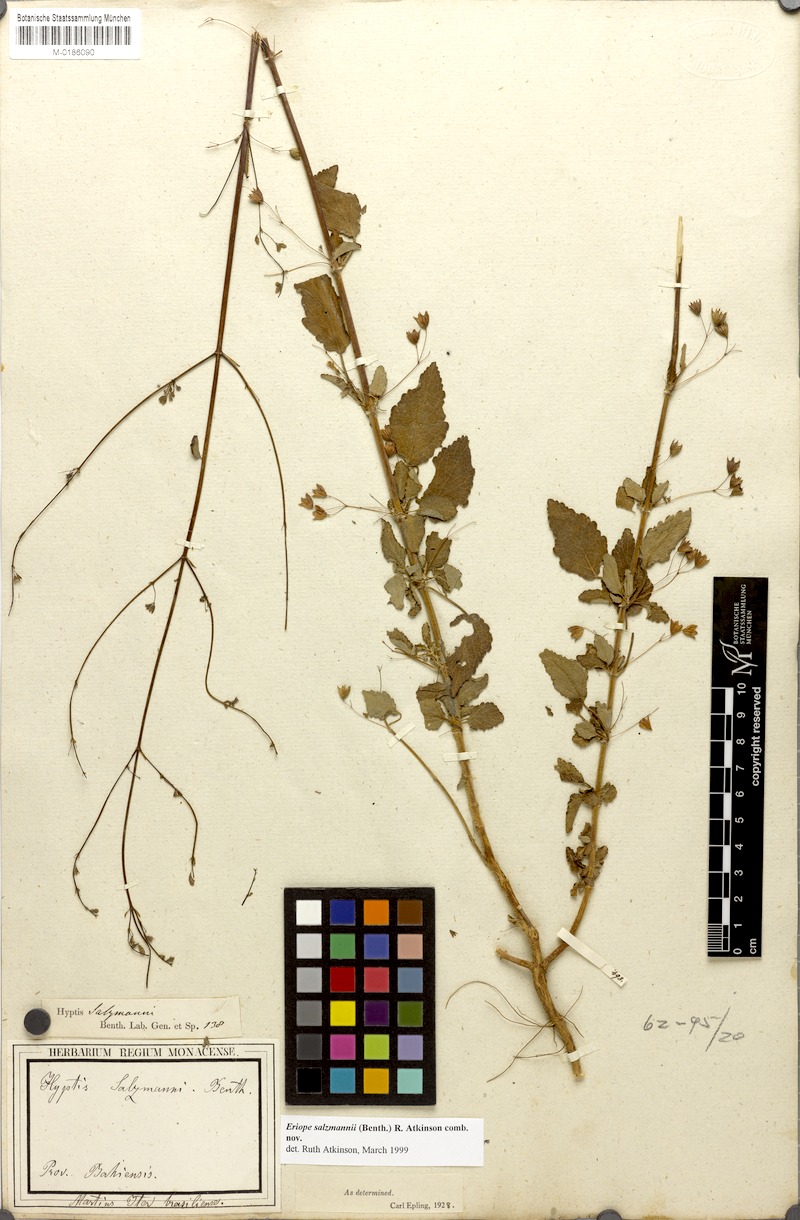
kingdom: Plantae
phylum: Tracheophyta
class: Magnoliopsida
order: Lamiales
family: Lamiaceae
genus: Hypenia
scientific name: Hypenia salzmannii
